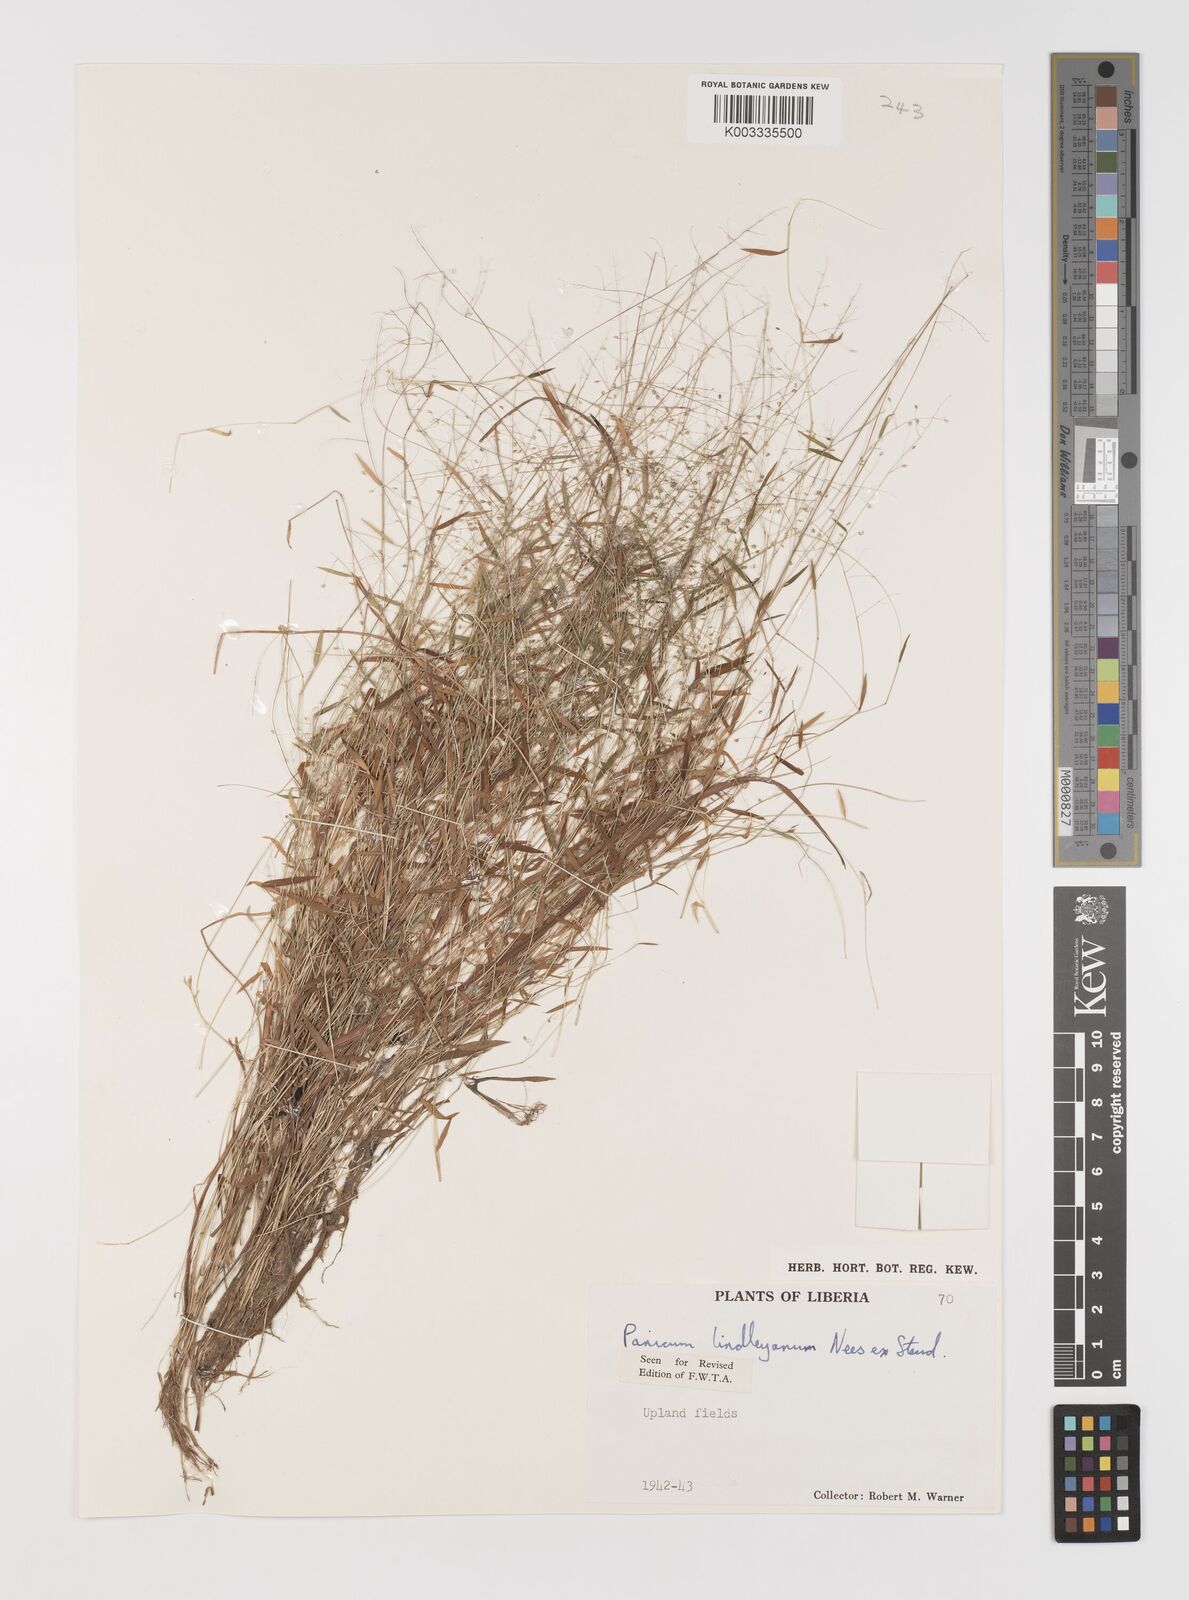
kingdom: Plantae
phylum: Tracheophyta
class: Liliopsida
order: Poales
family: Poaceae
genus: Trichanthecium
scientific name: Trichanthecium tenellum
